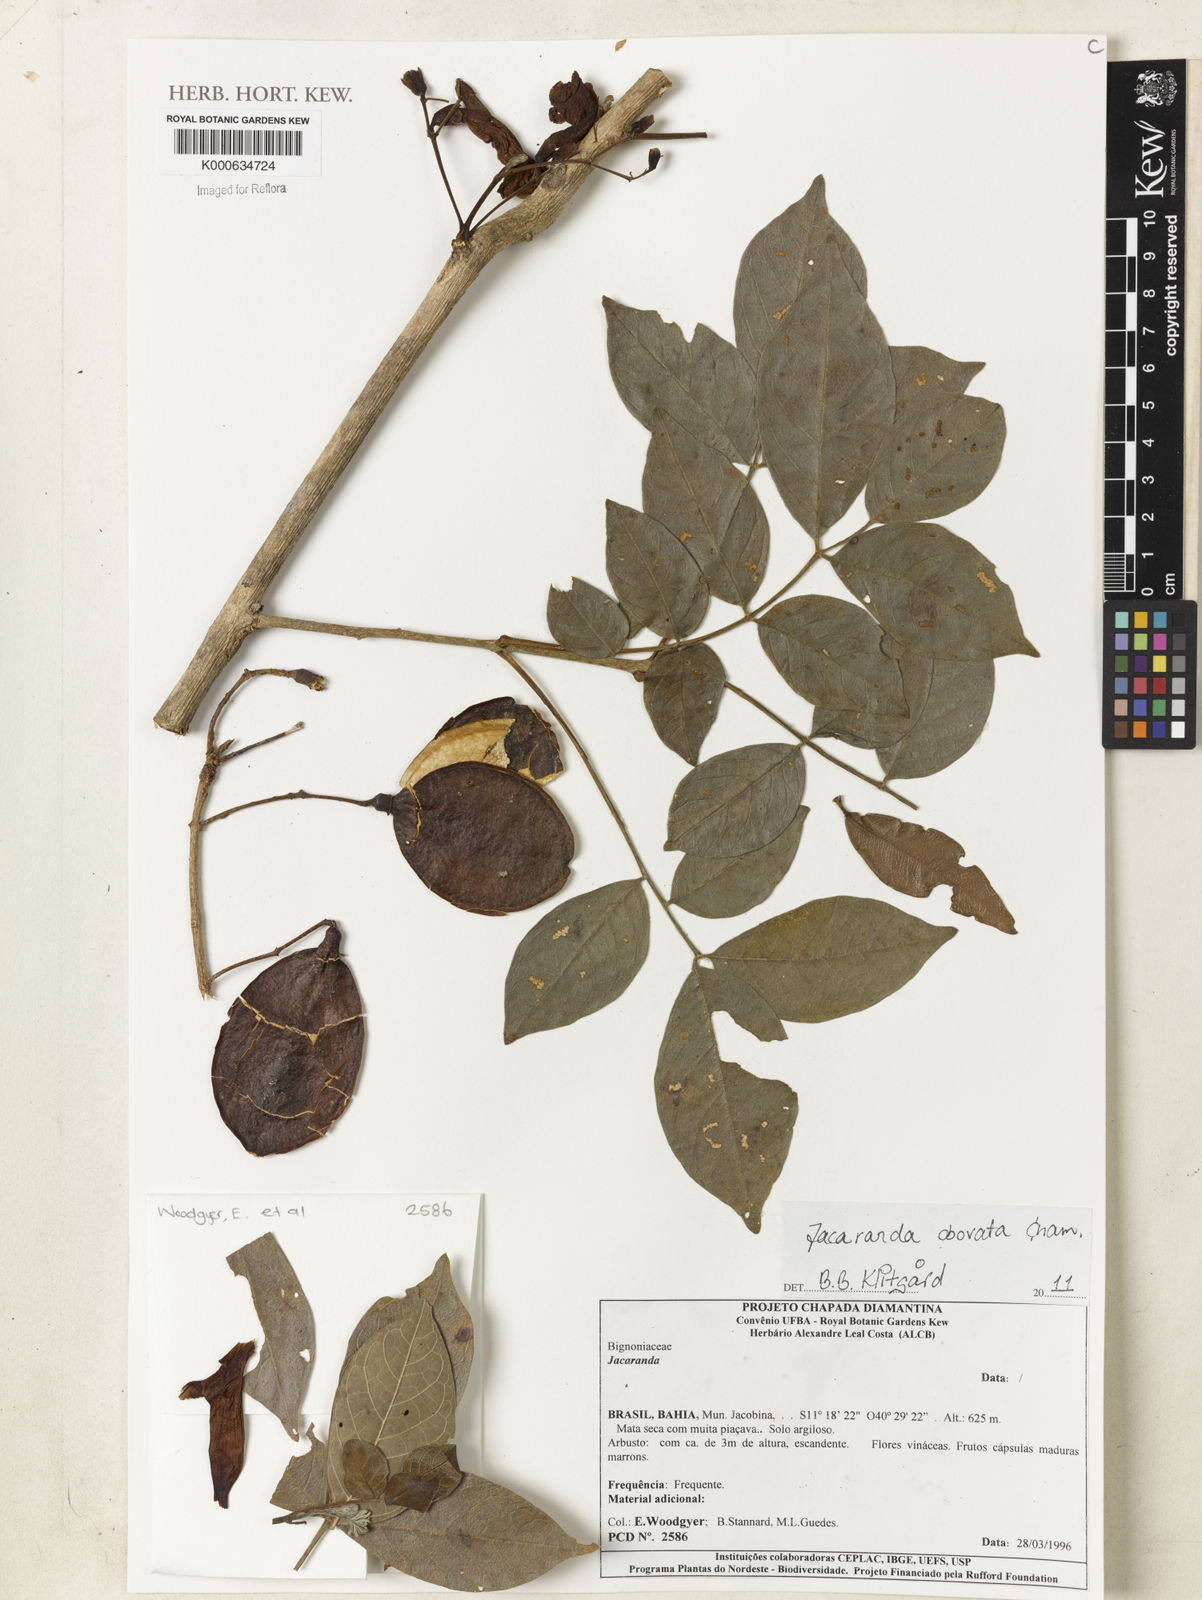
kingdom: Plantae
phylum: Tracheophyta
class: Magnoliopsida
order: Lamiales
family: Bignoniaceae
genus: Jacaranda
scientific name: Jacaranda obovata
